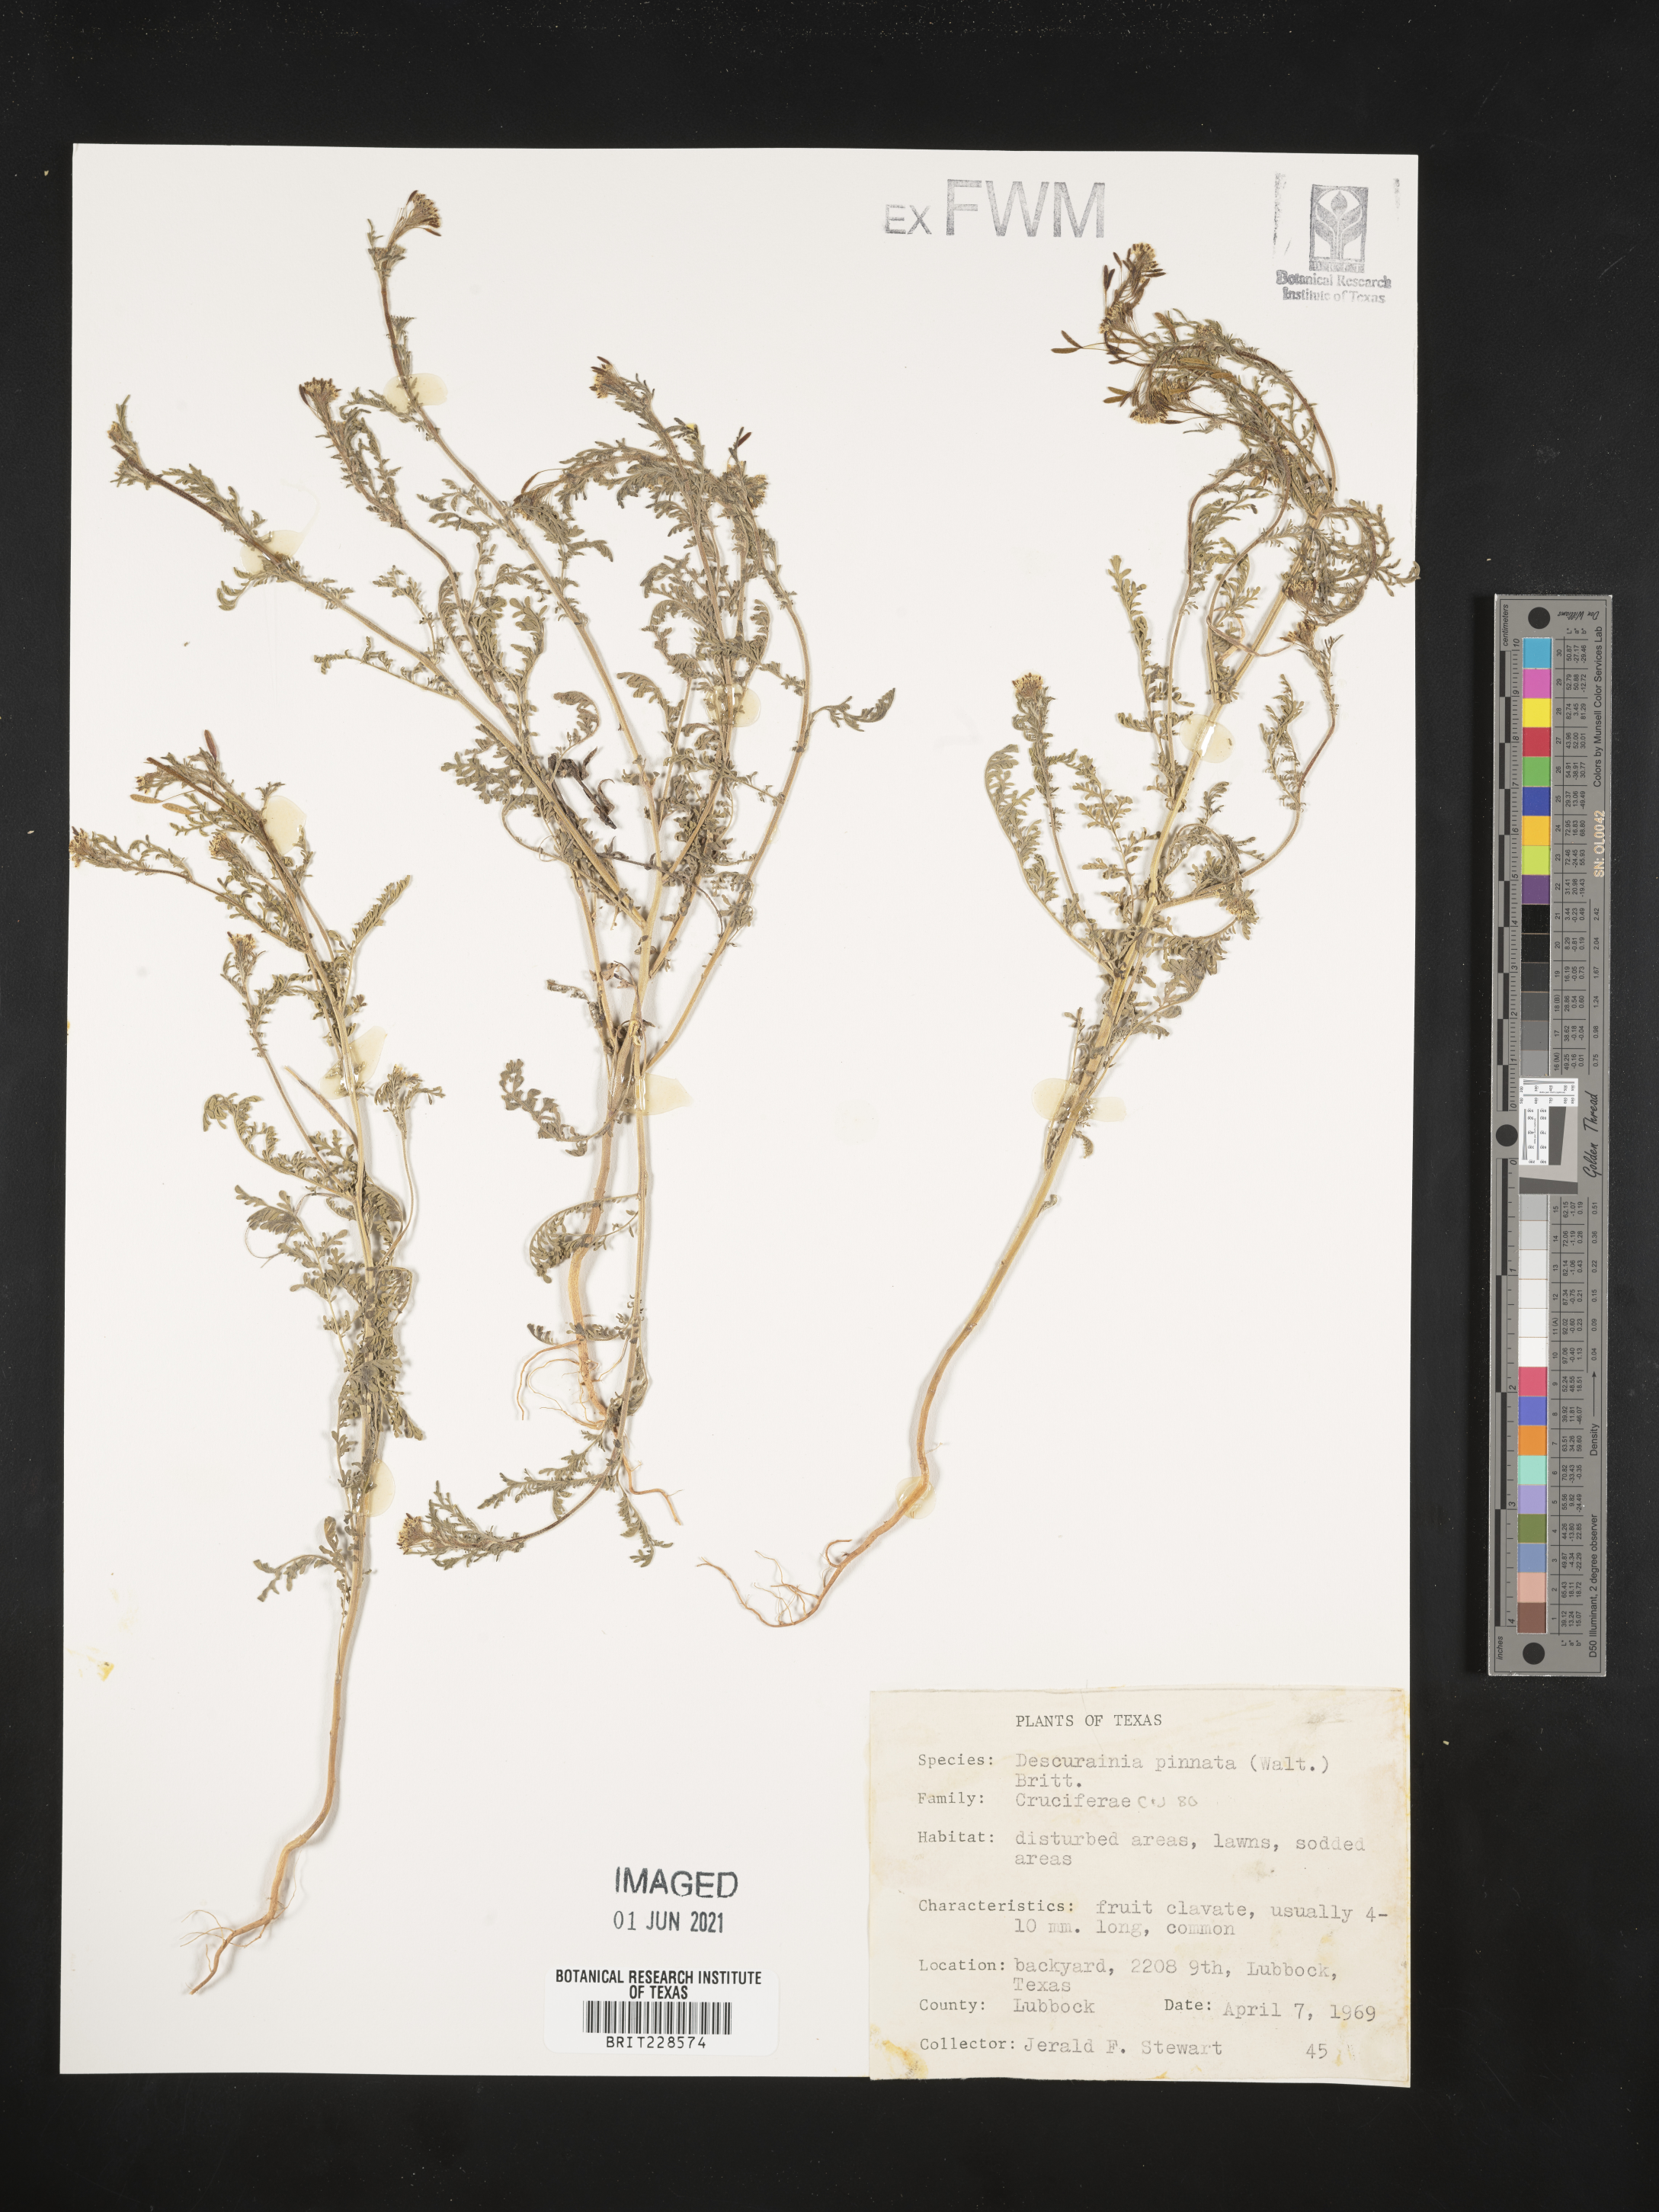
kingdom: Plantae
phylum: Tracheophyta
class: Magnoliopsida
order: Brassicales
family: Brassicaceae
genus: Descurainia
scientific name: Descurainia pinnata
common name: Western tansy mustard
